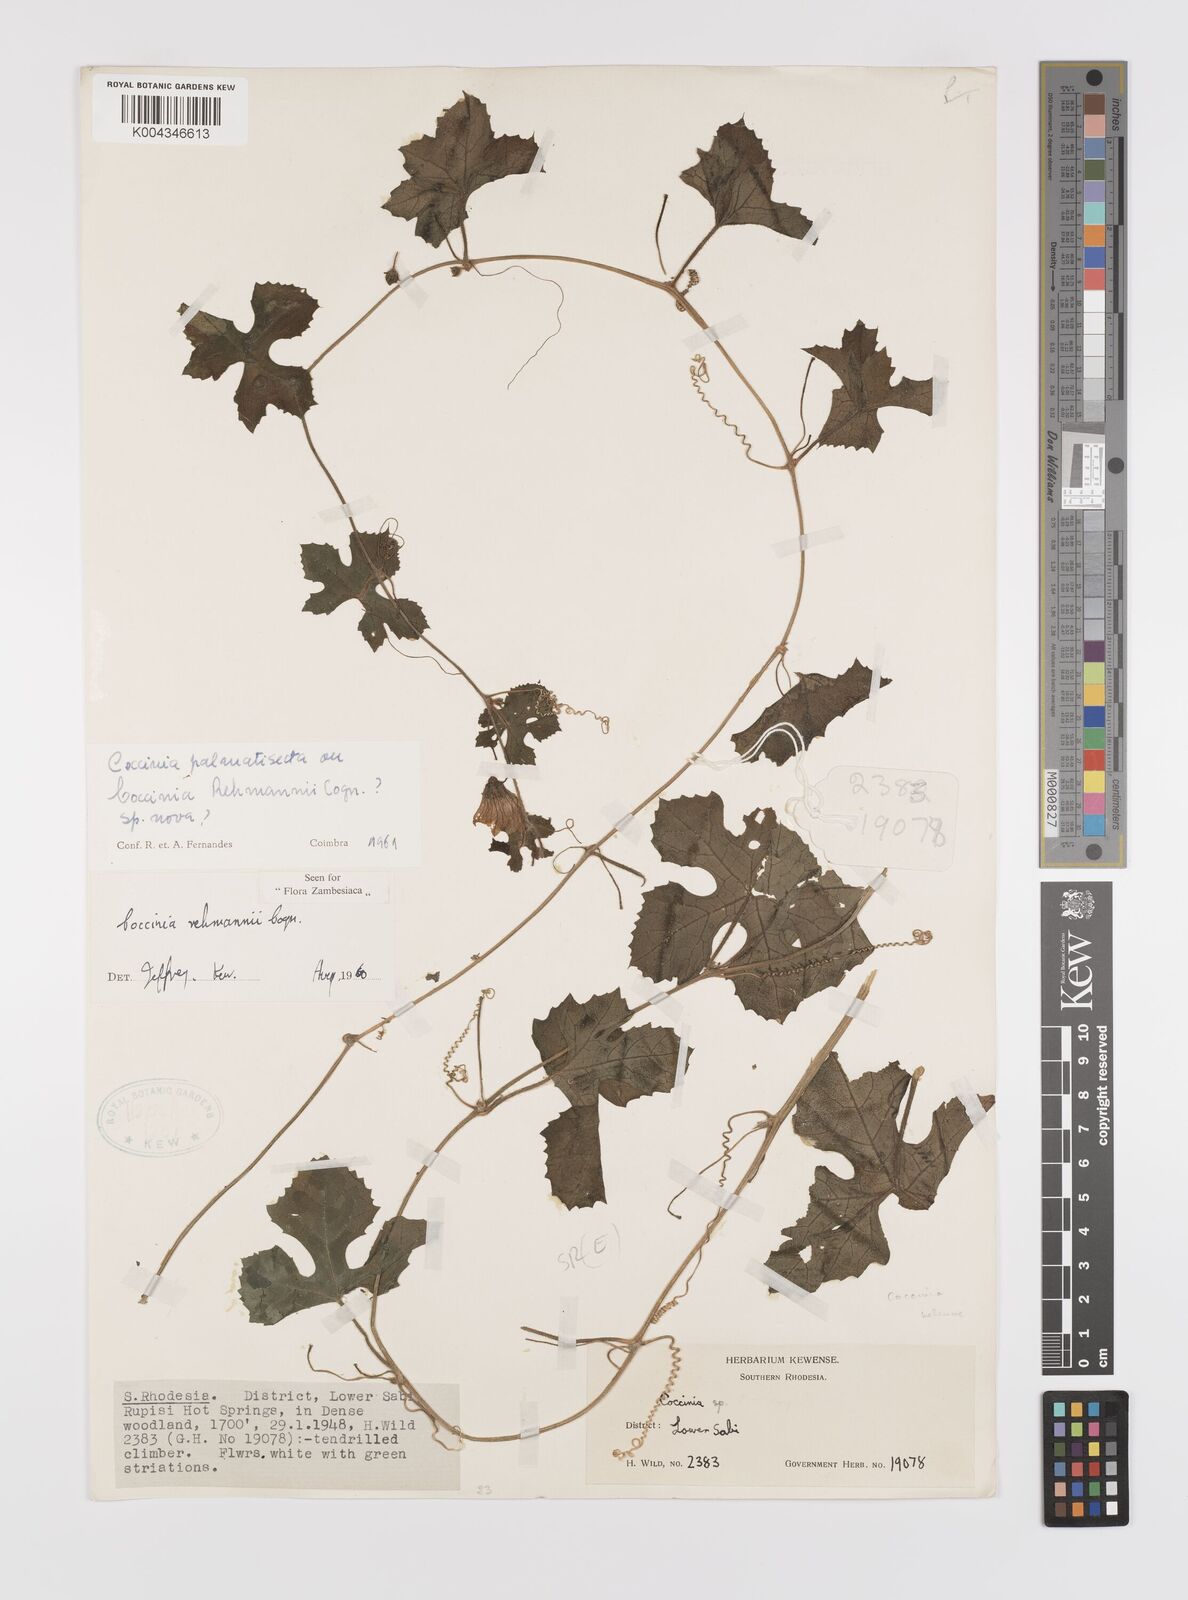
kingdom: Plantae
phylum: Tracheophyta
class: Magnoliopsida
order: Cucurbitales
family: Cucurbitaceae
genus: Coccinia
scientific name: Coccinia rehmannii
